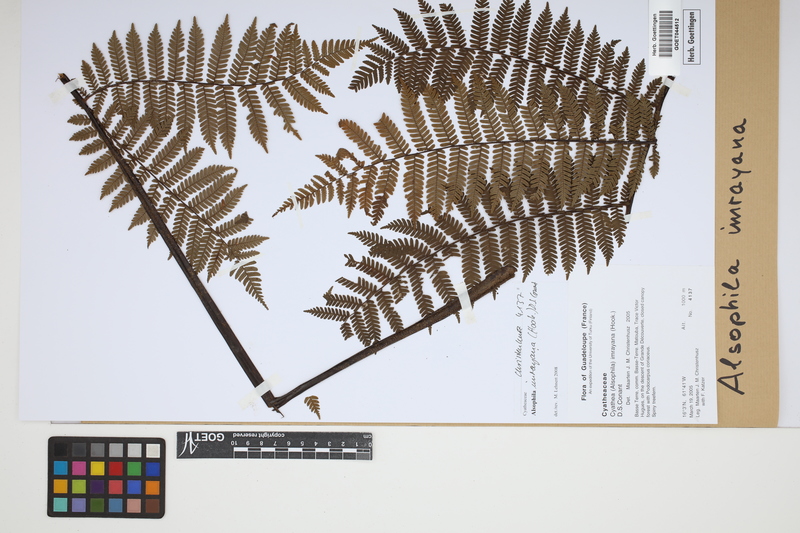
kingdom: Plantae
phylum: Tracheophyta
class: Polypodiopsida
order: Cyatheales
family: Cyatheaceae
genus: Alsophila
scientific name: Alsophila imrayana
